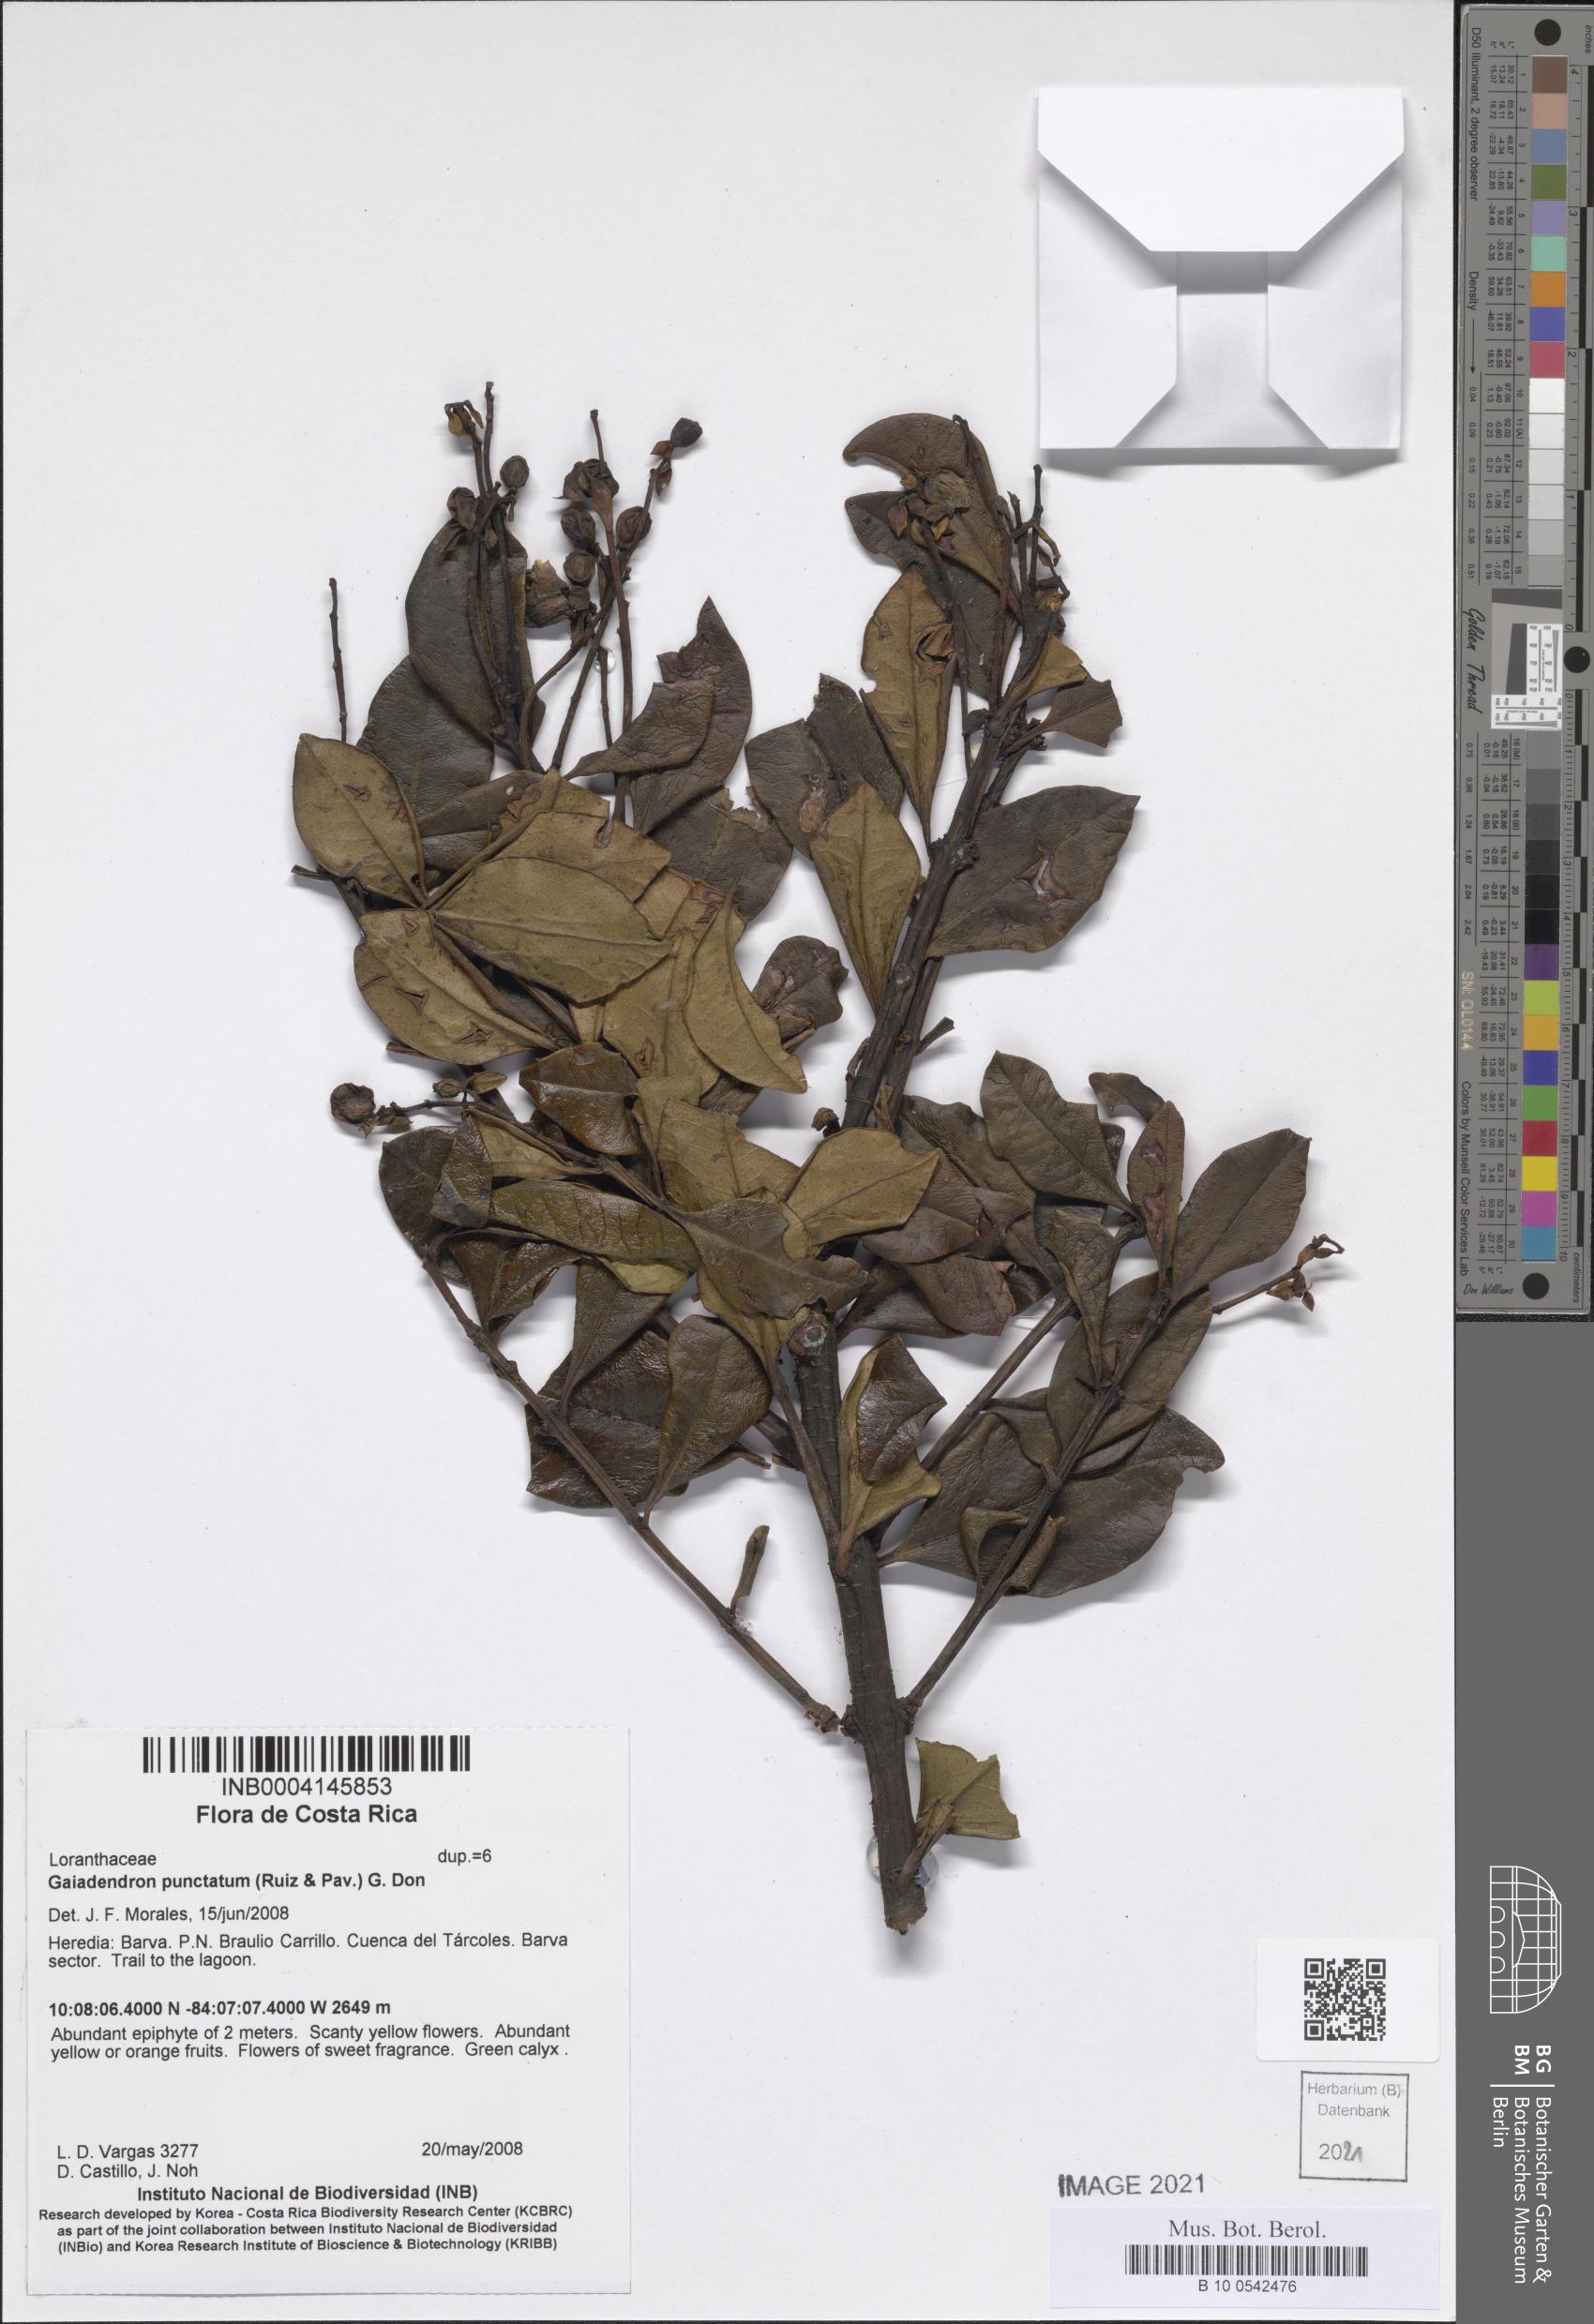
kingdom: Plantae
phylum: Tracheophyta
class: Magnoliopsida
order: Santalales
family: Loranthaceae
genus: Gaiadendron
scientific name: Gaiadendron punctatum
